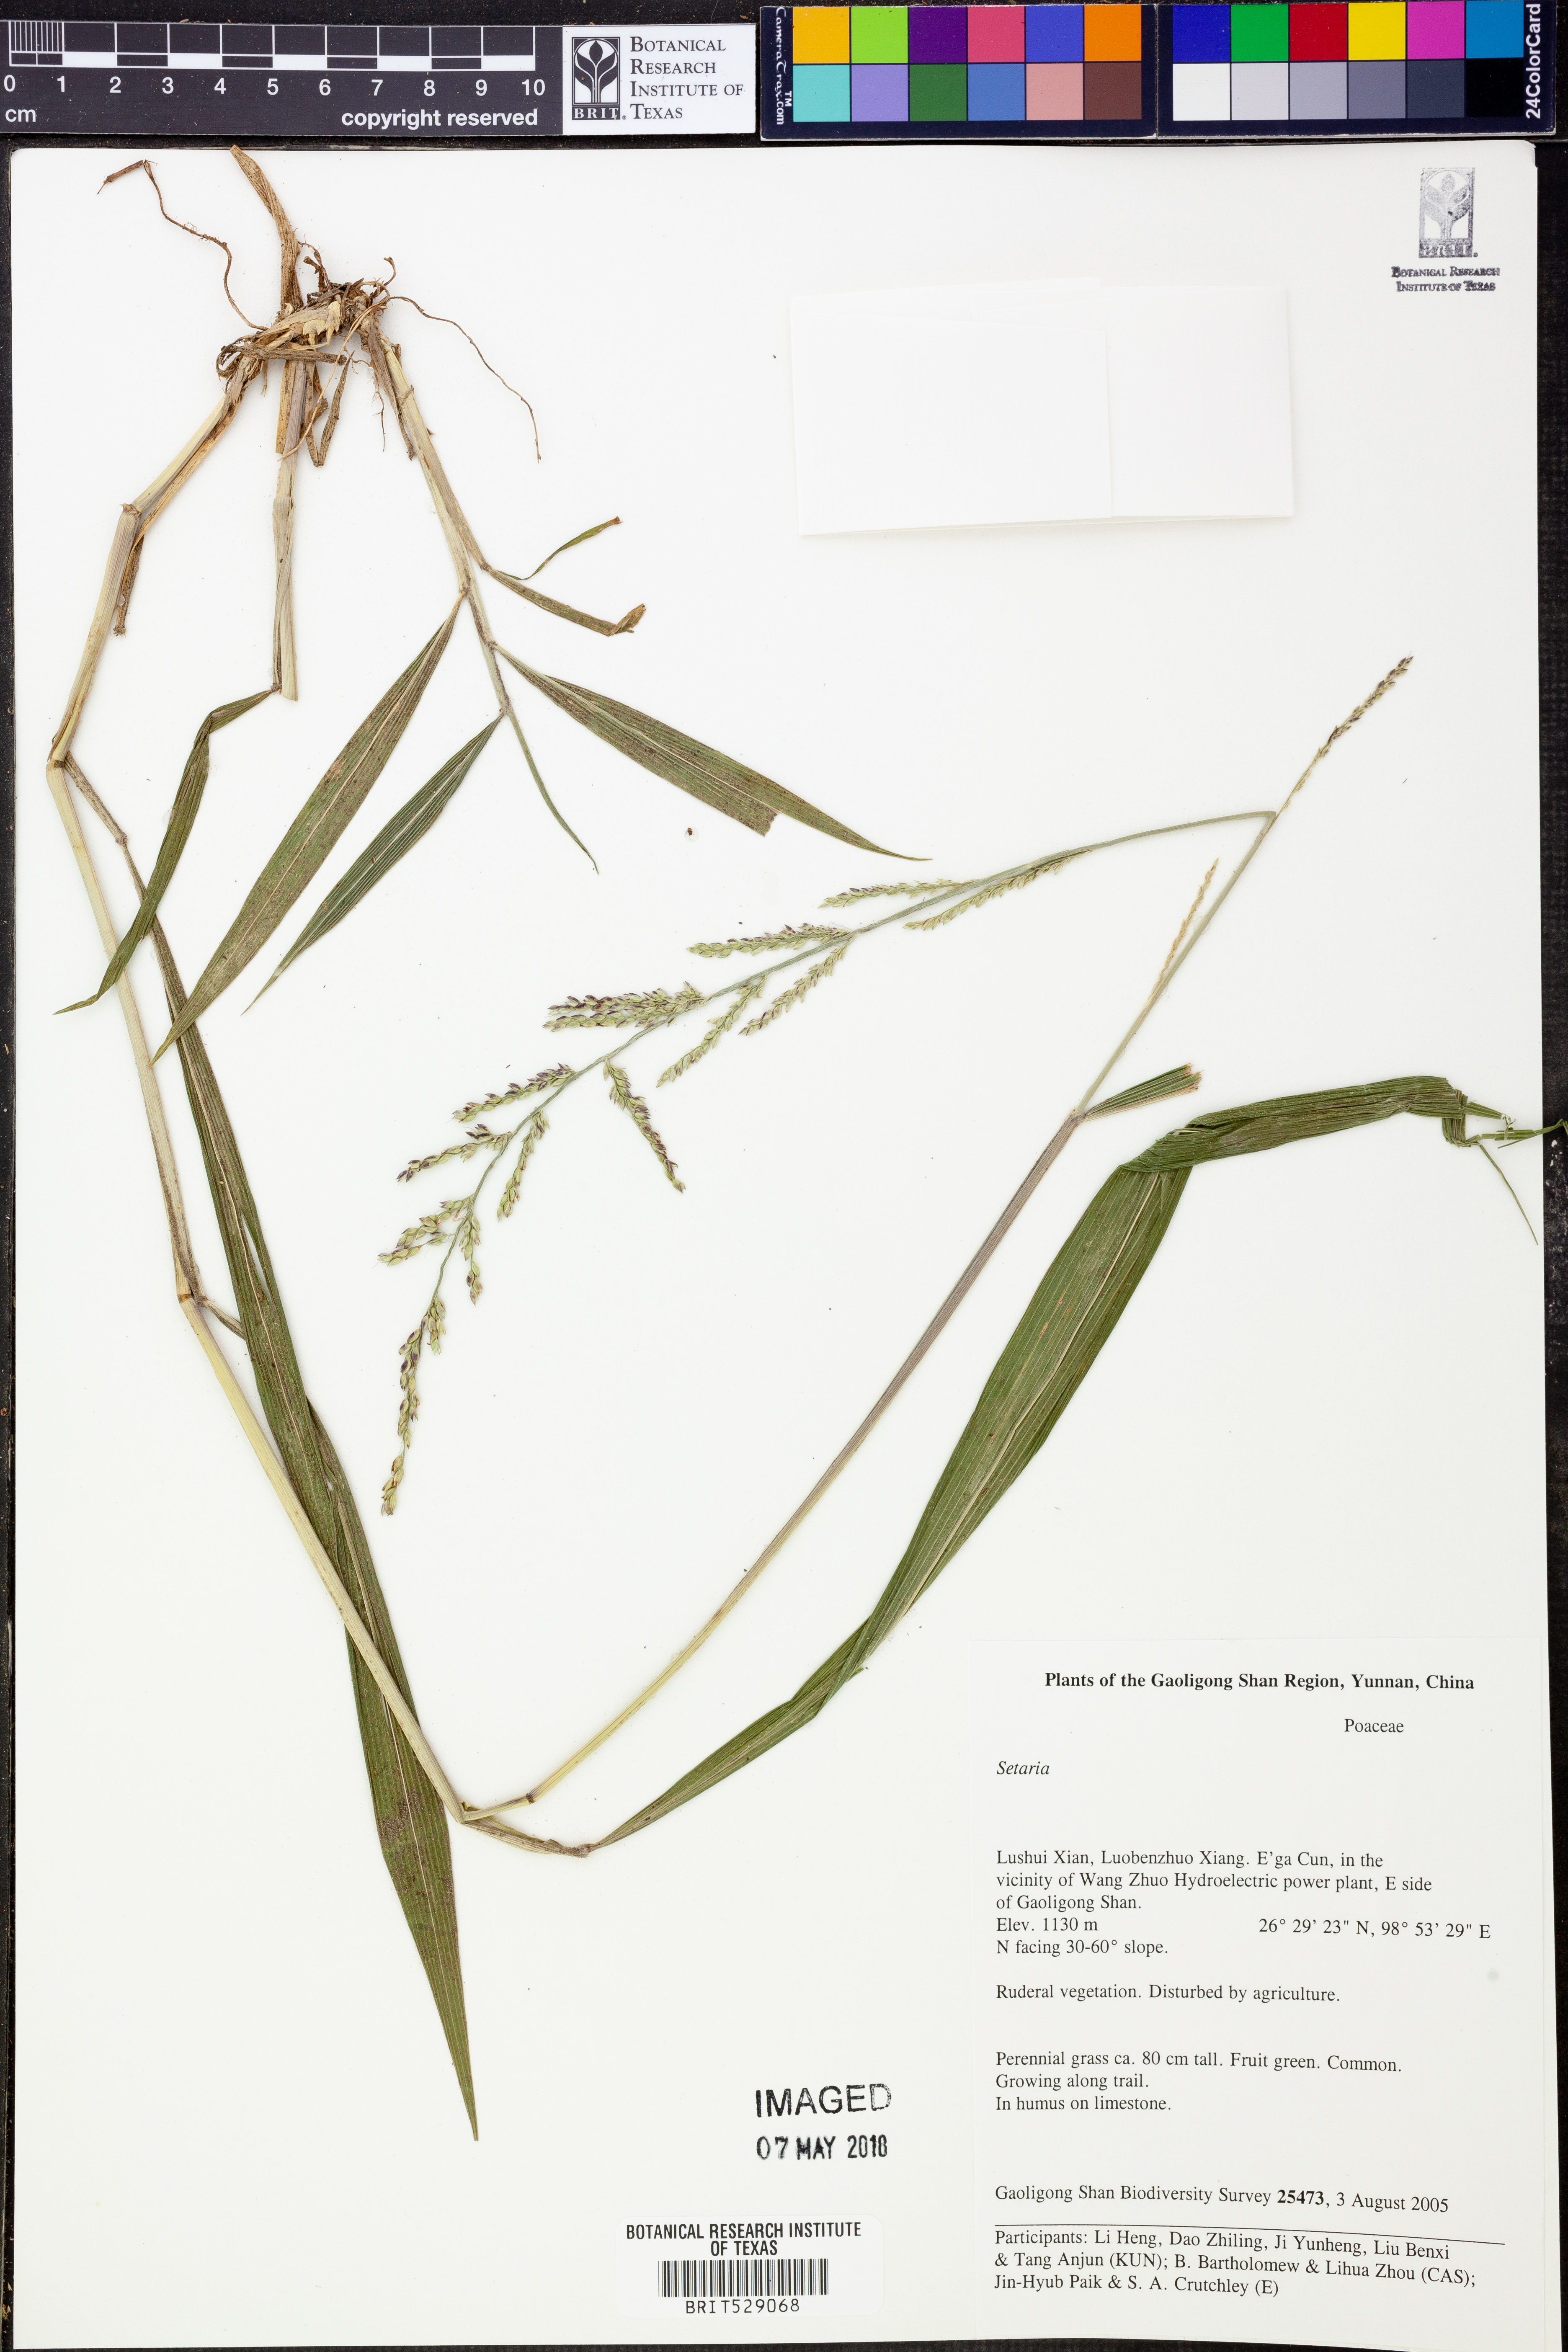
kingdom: Plantae
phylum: Tracheophyta
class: Liliopsida
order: Poales
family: Poaceae
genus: Setaria
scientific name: Setaria
